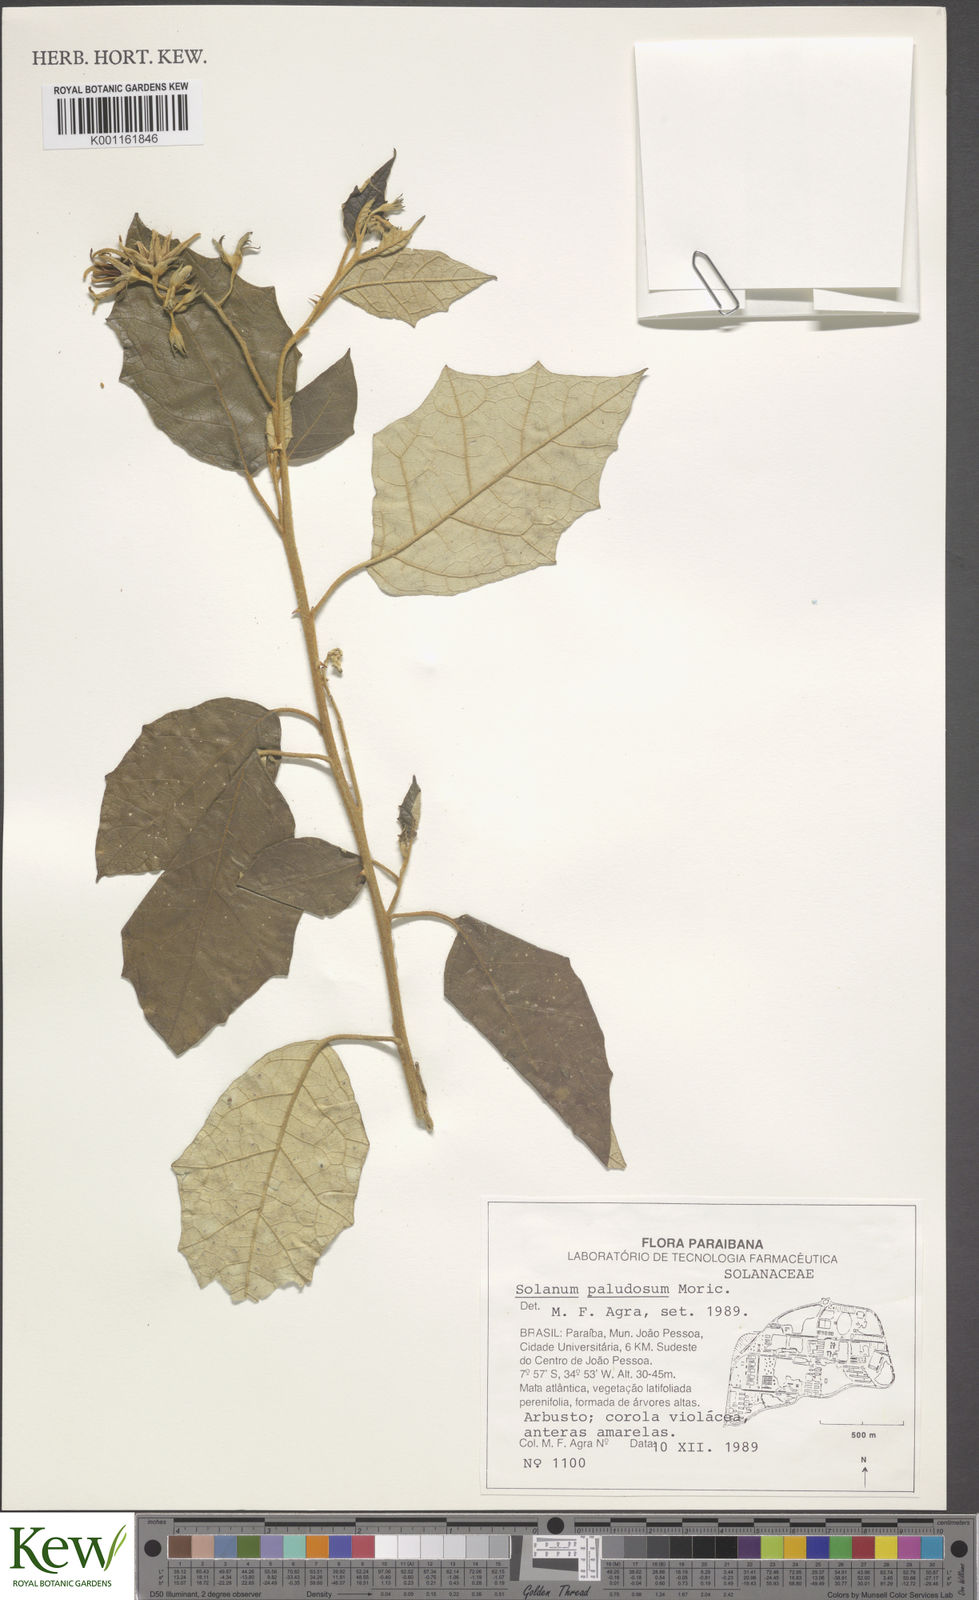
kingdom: Plantae
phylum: Tracheophyta
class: Magnoliopsida
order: Solanales
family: Solanaceae
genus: Solanum
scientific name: Solanum paludosum
